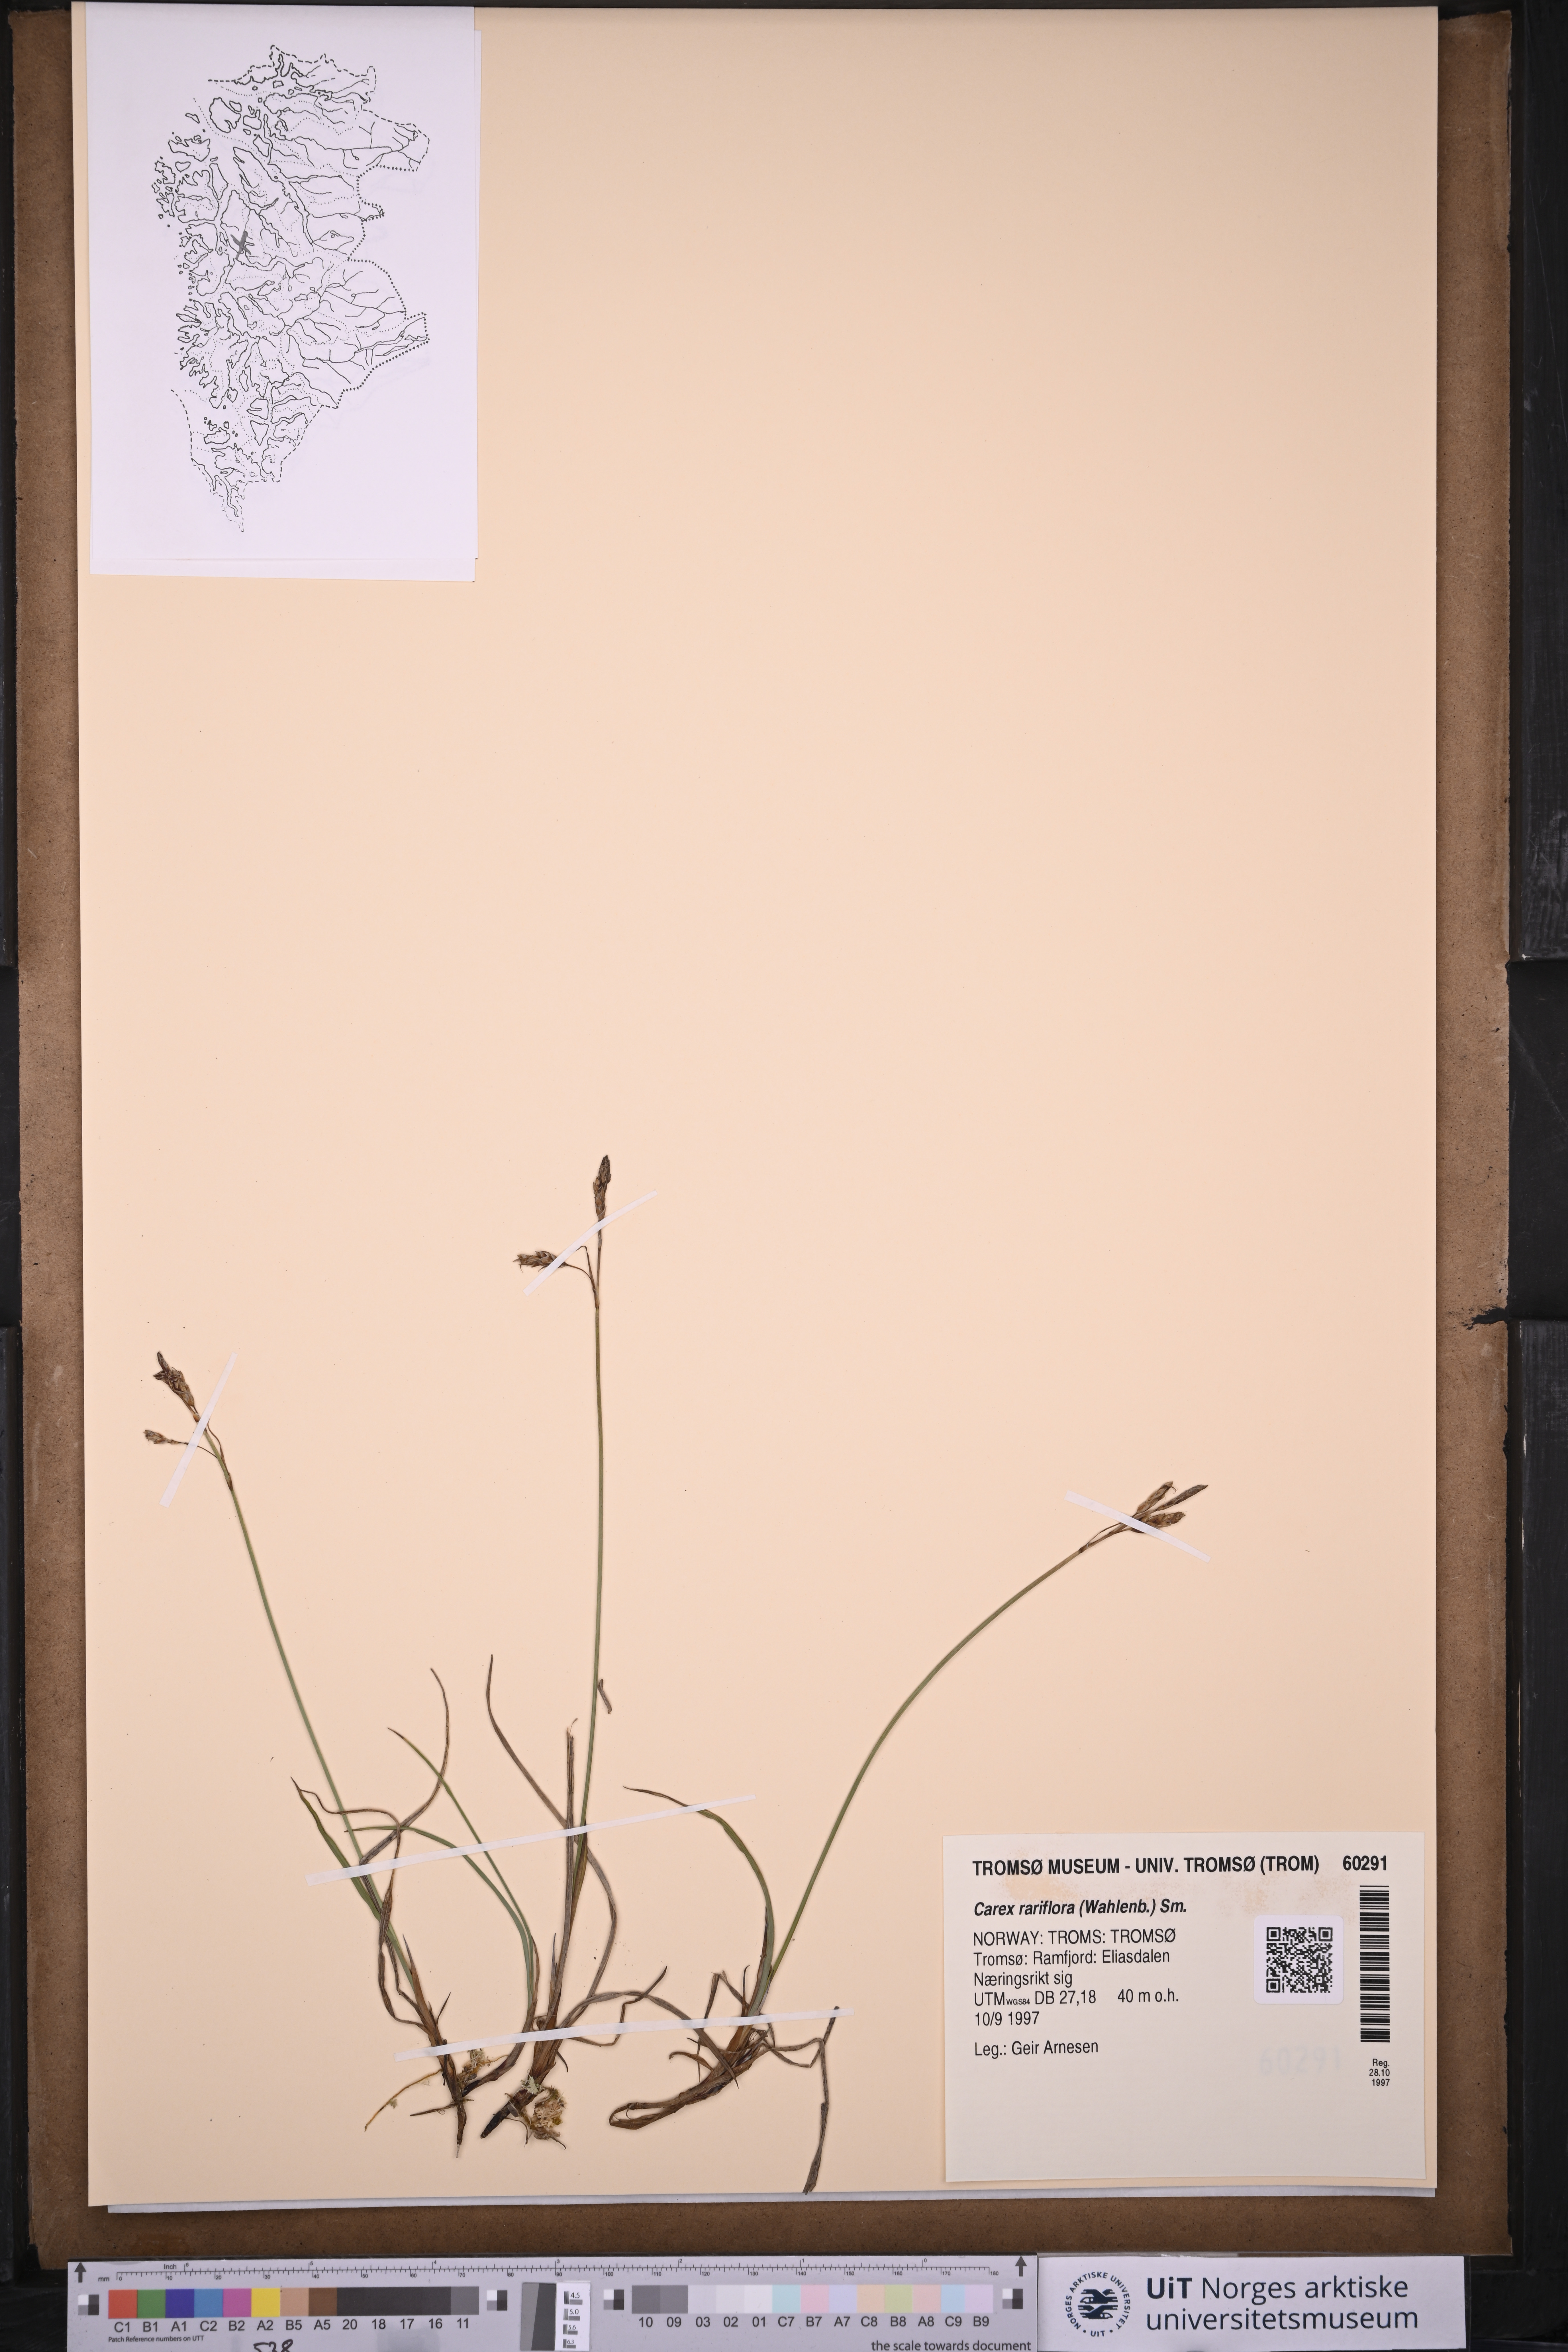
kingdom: Plantae
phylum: Tracheophyta
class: Liliopsida
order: Poales
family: Cyperaceae
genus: Carex
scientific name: Carex rariflora
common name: Loose-flowered alpine sedge
